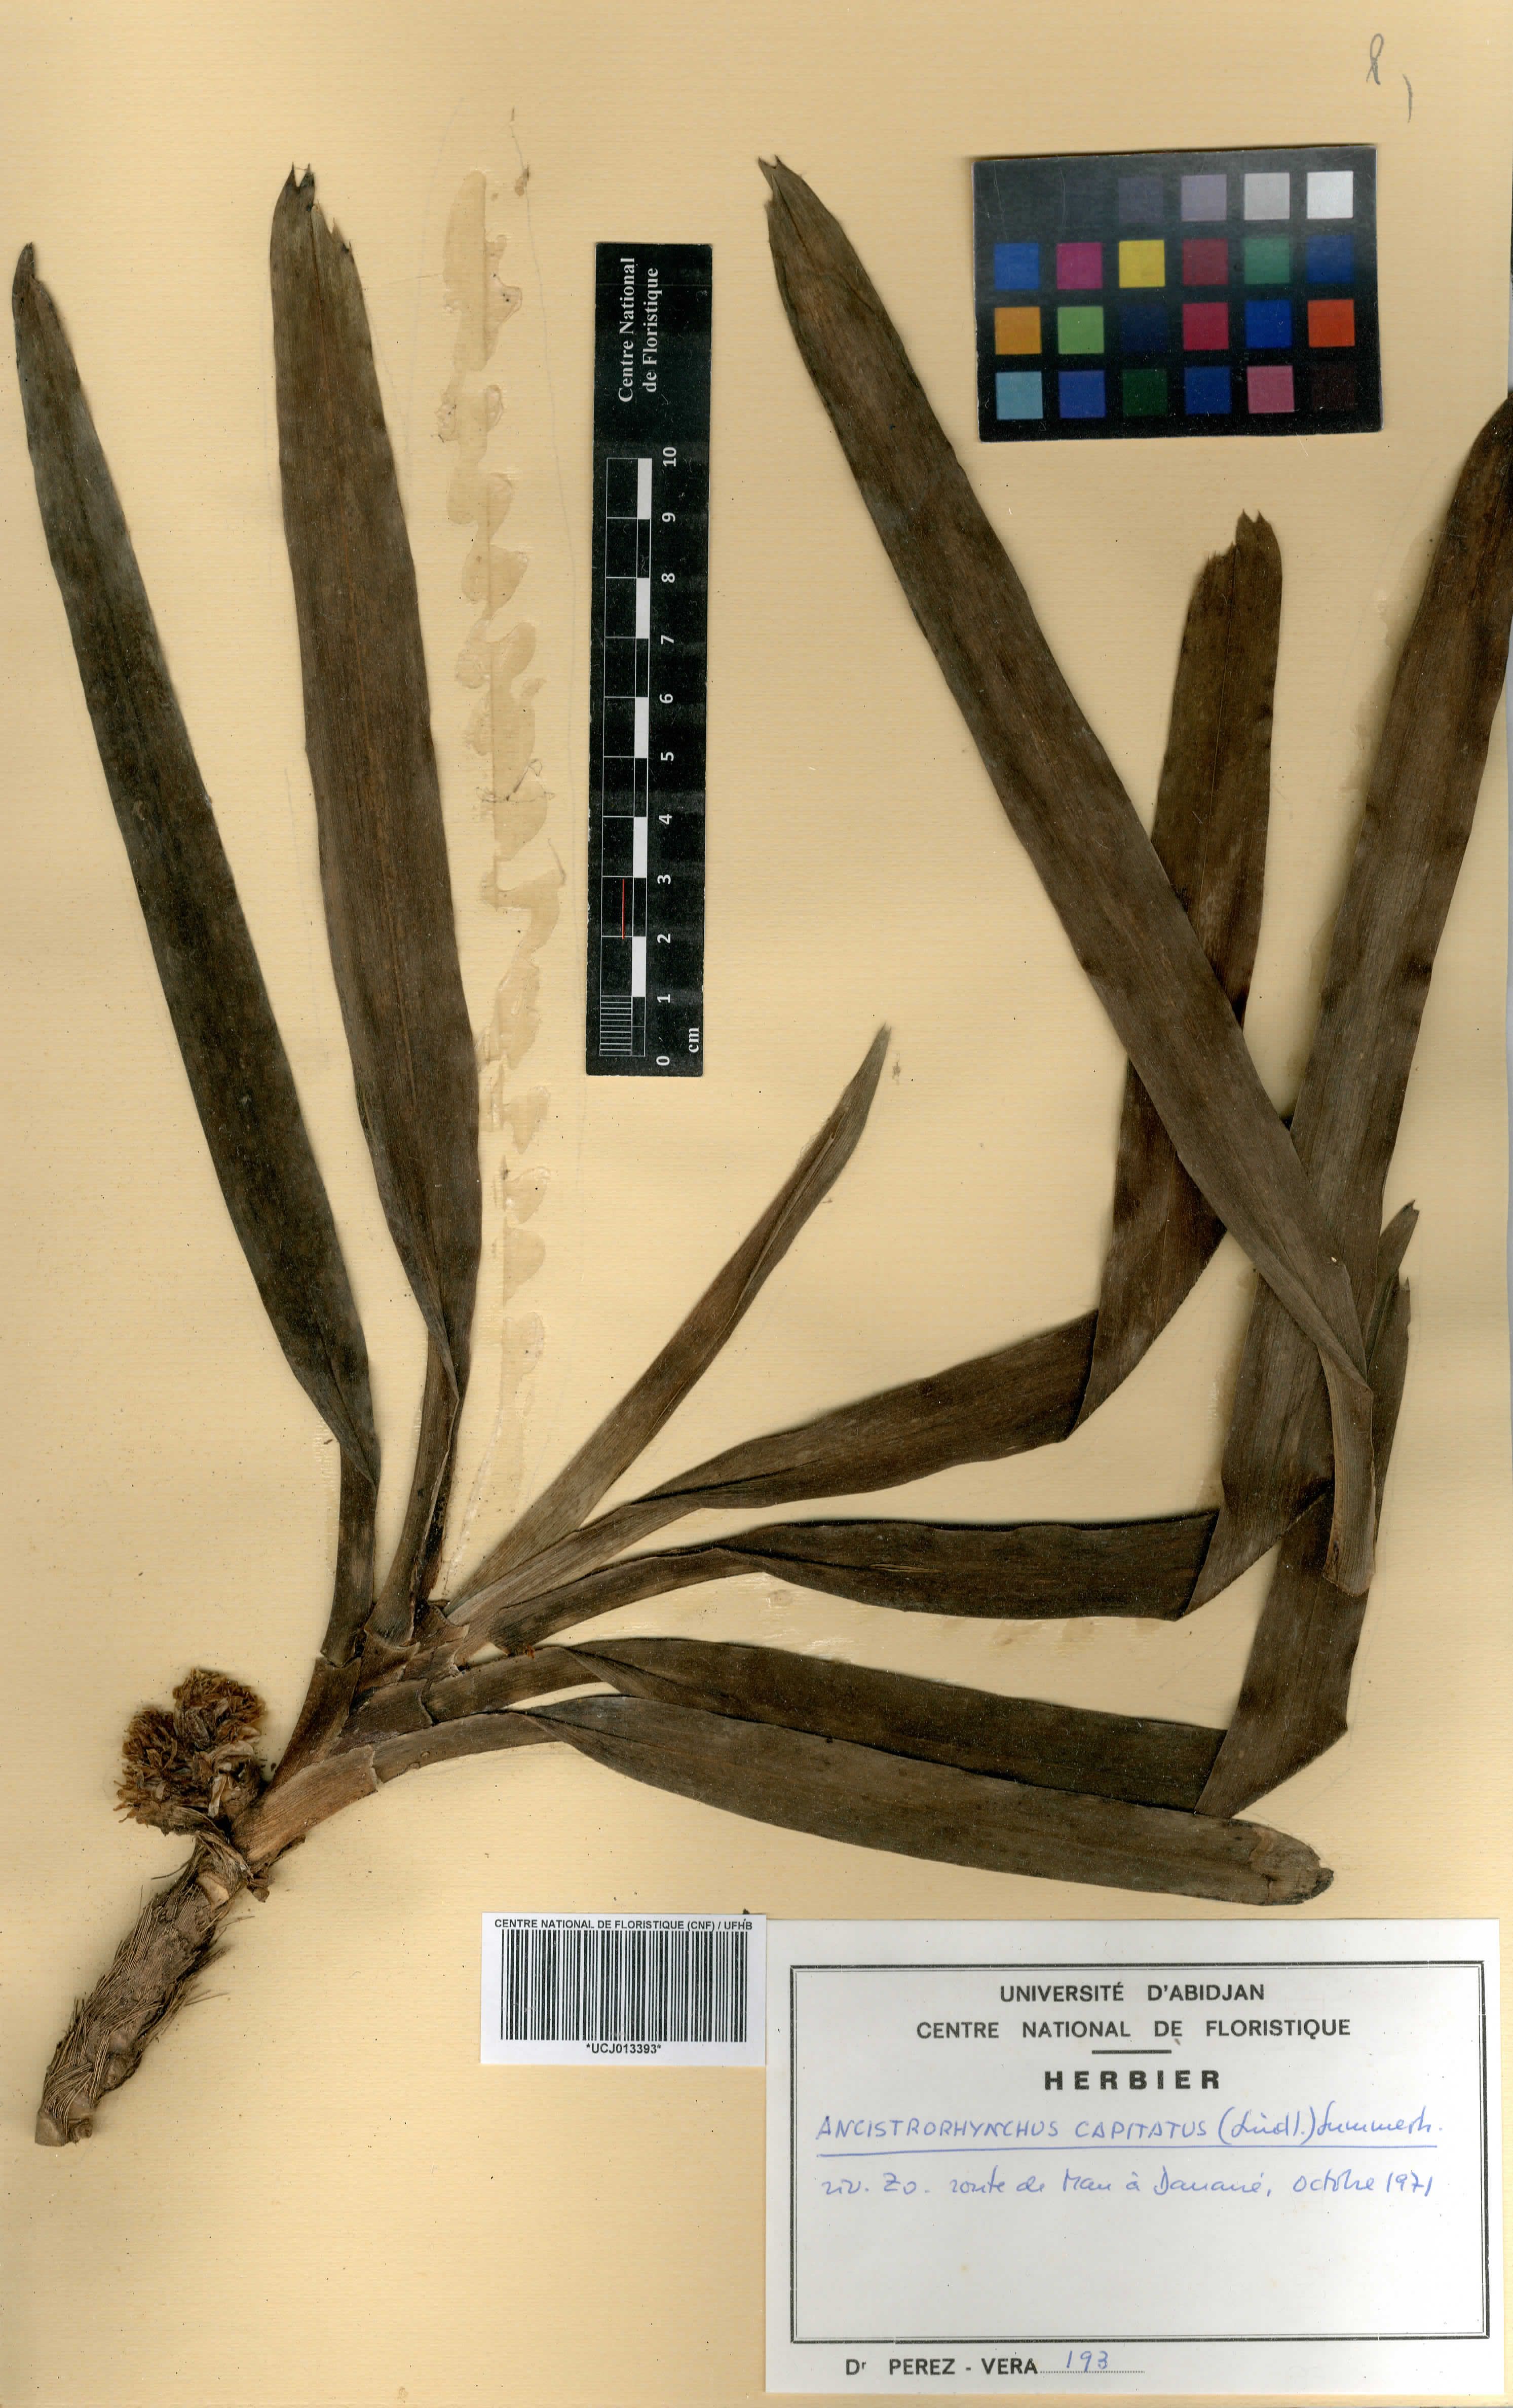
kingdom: Plantae
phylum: Tracheophyta
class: Liliopsida
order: Asparagales
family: Orchidaceae
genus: Ancistrorhynchus
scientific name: Ancistrorhynchus capitatus
